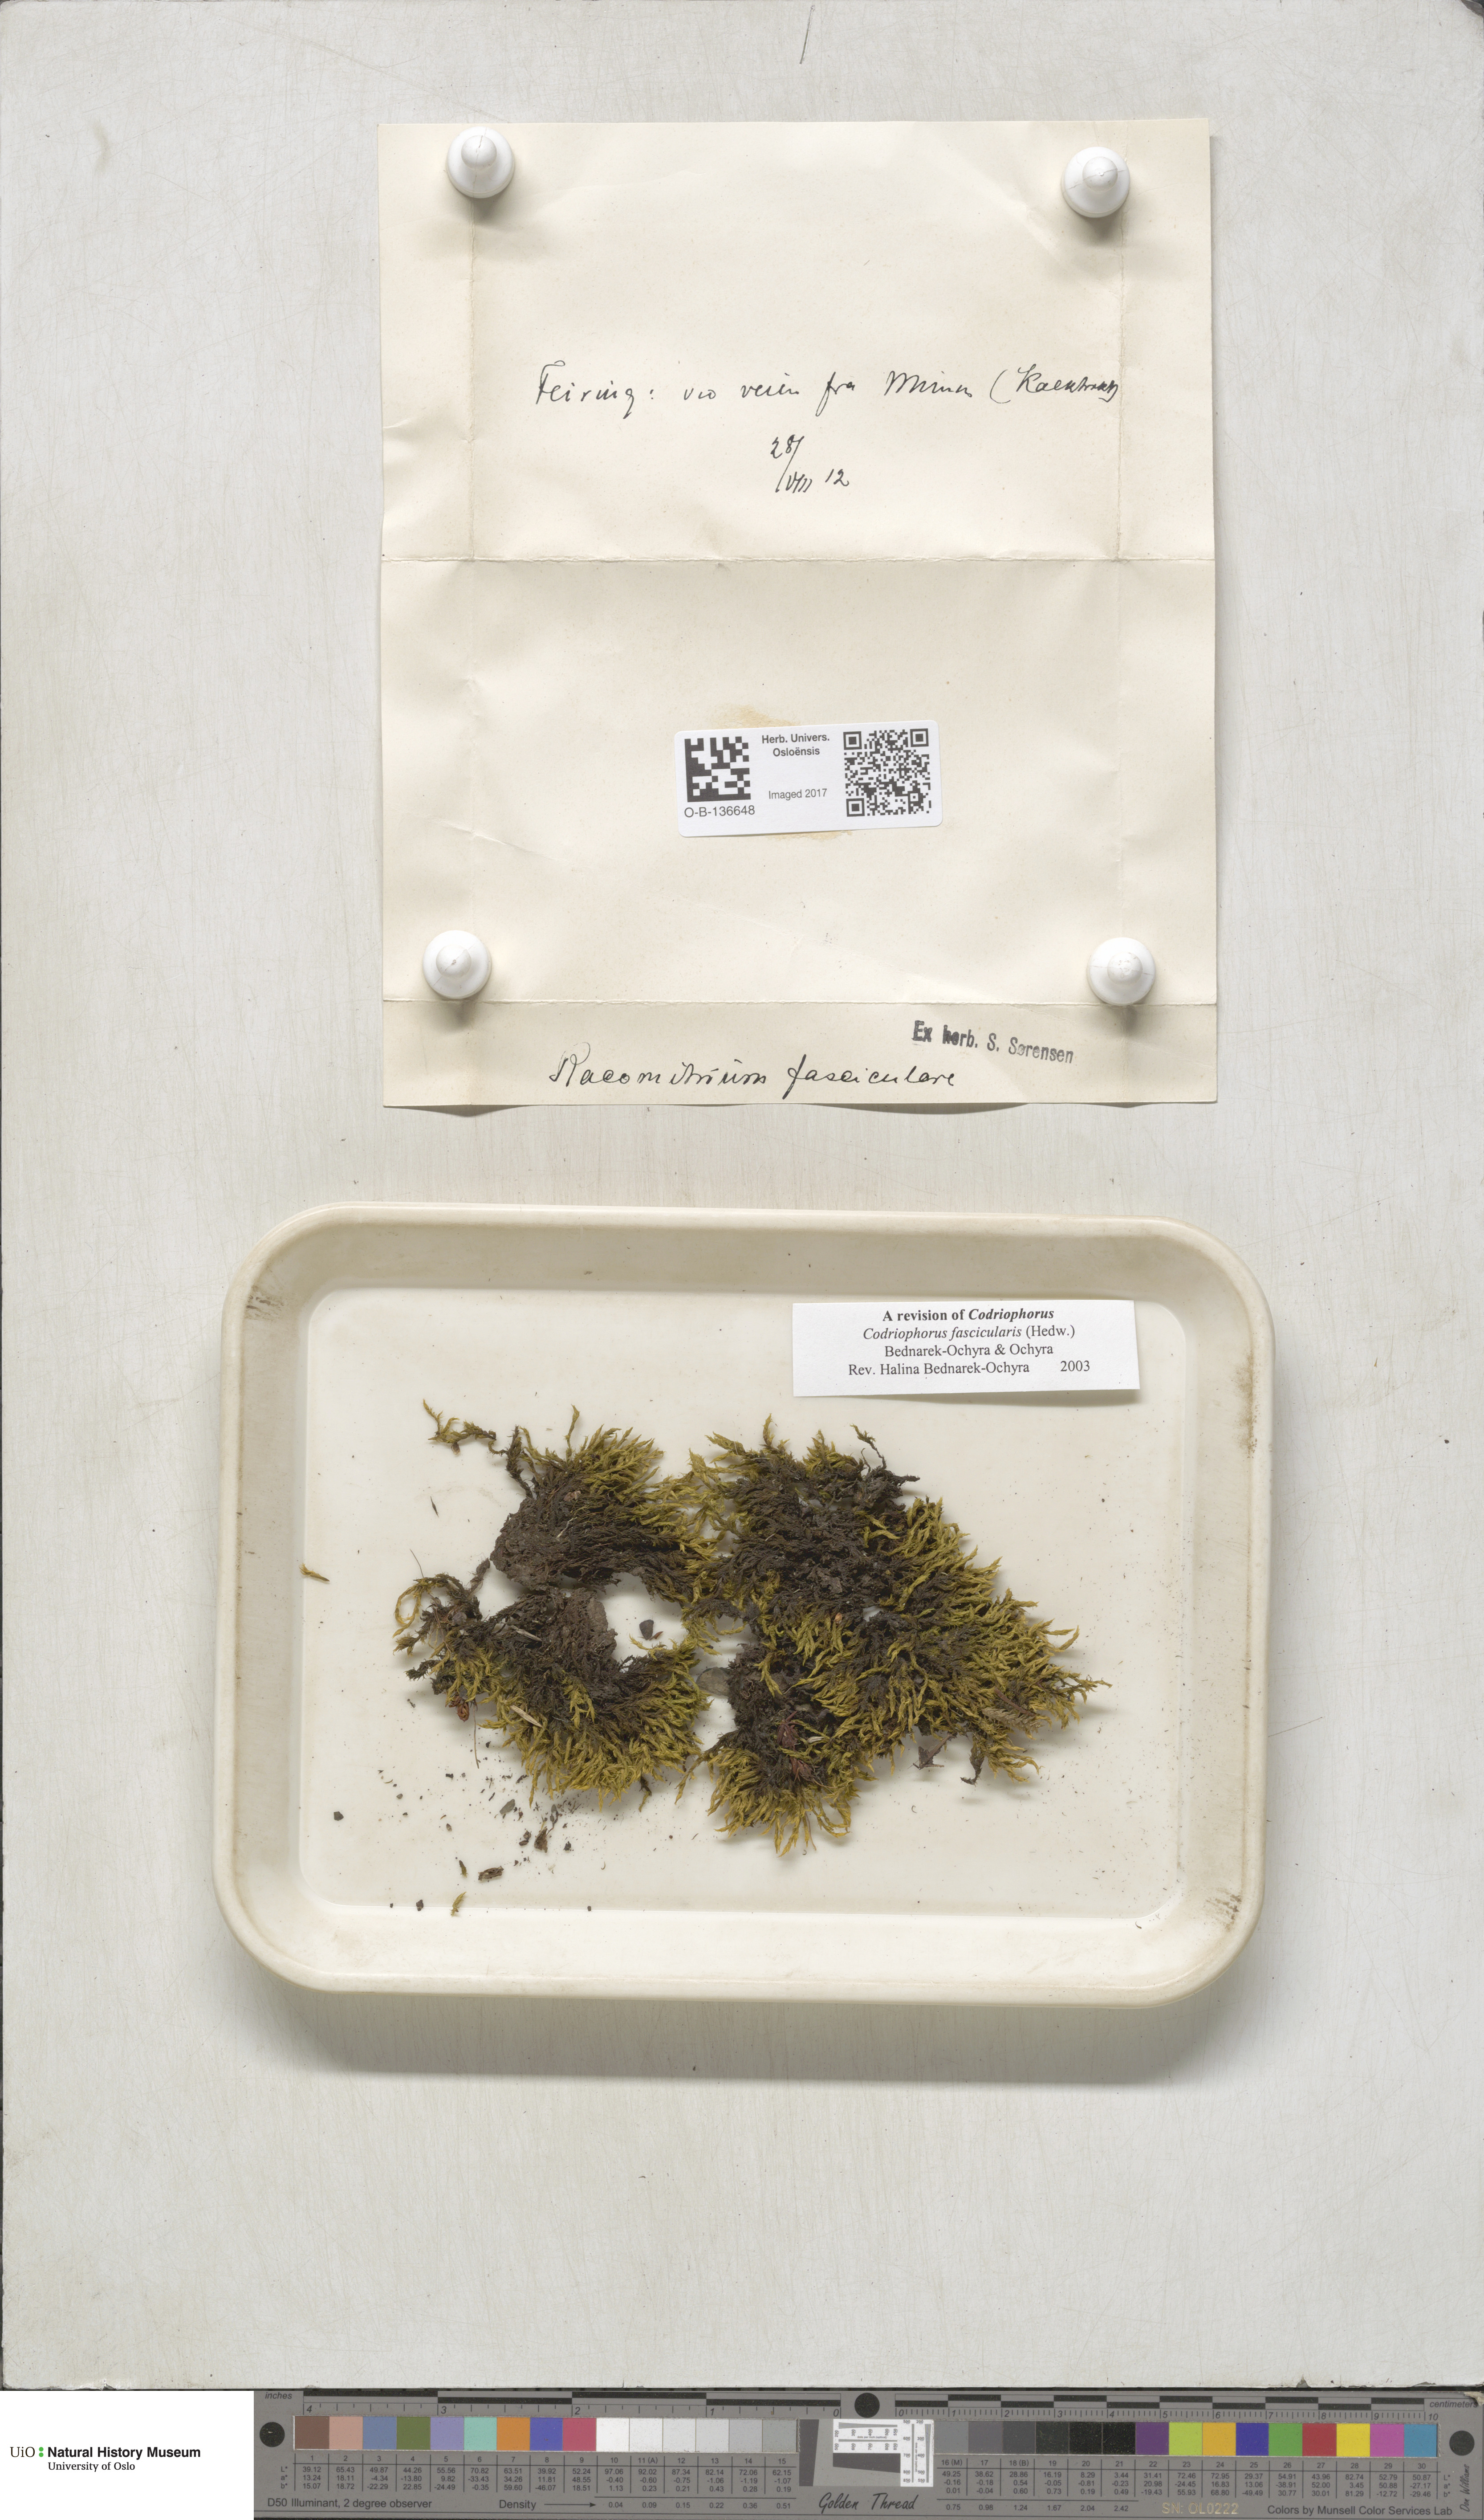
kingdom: Plantae
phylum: Bryophyta
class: Bryopsida
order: Grimmiales
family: Grimmiaceae
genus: Dilutineuron
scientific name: Dilutineuron fasciculare
